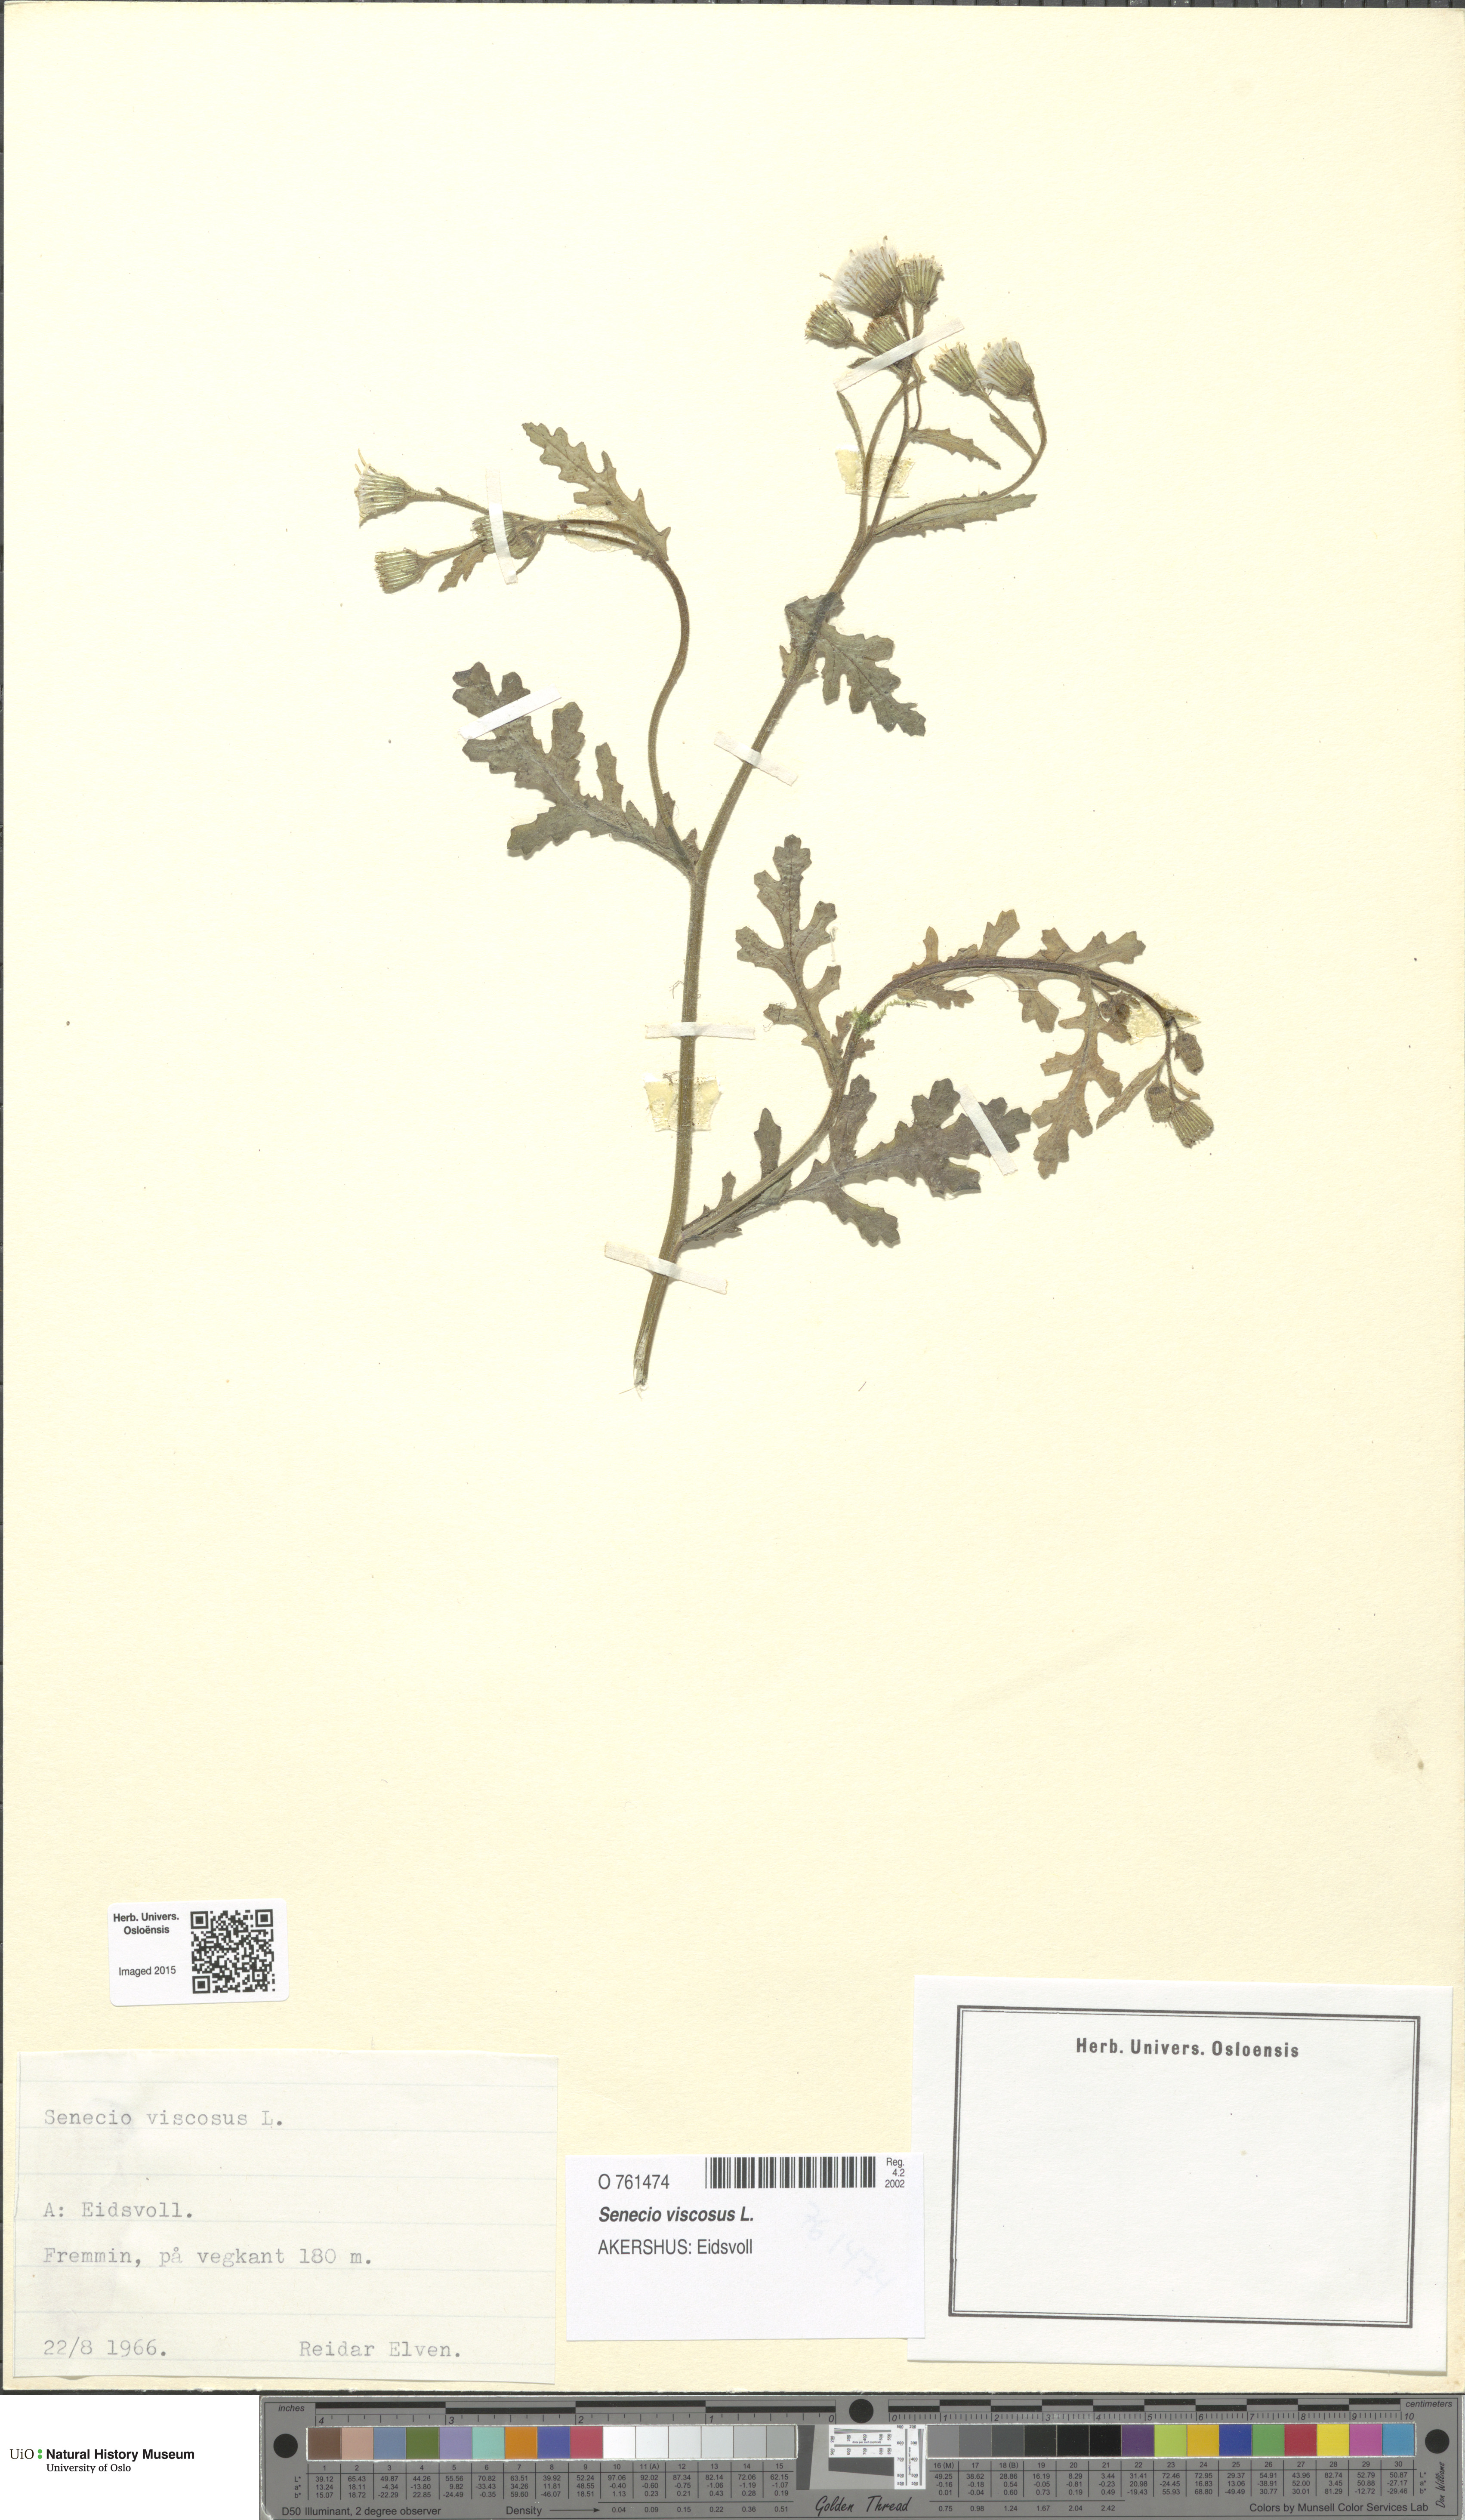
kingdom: Plantae
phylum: Tracheophyta
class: Magnoliopsida
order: Asterales
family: Asteraceae
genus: Senecio
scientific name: Senecio viscosus
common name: Sticky groundsel
